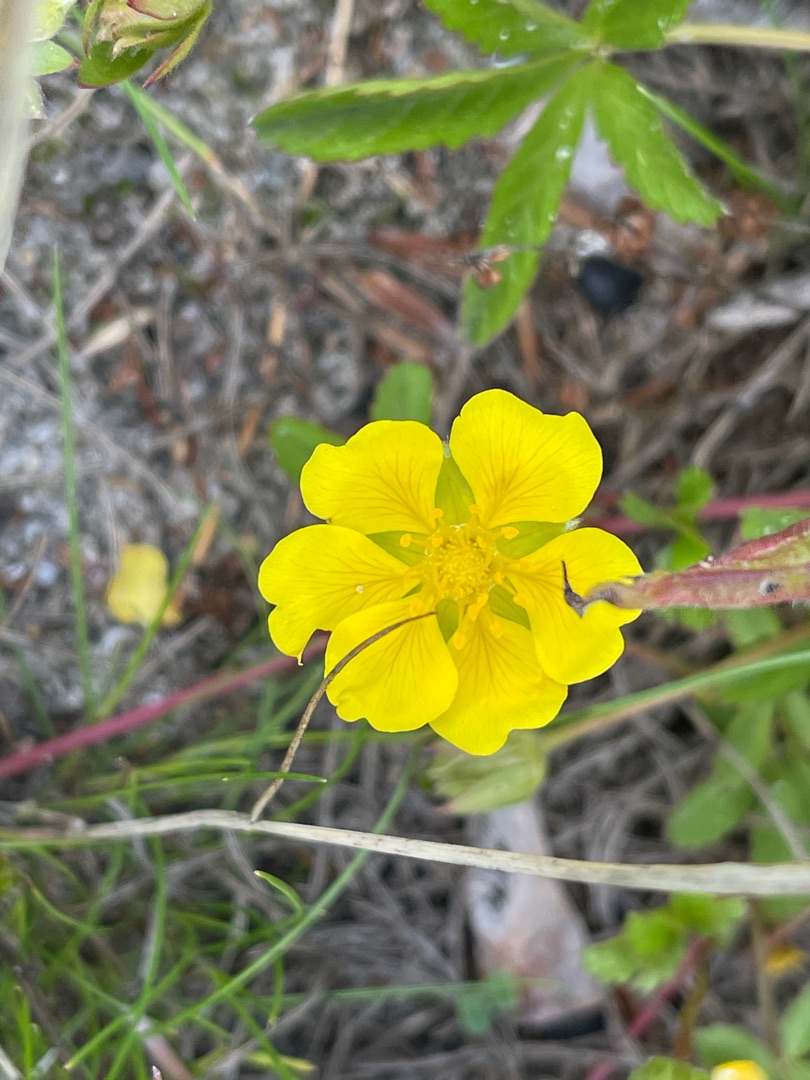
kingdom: Plantae
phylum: Tracheophyta
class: Magnoliopsida
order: Rosales
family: Rosaceae
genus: Potentilla
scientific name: Potentilla reptans
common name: Krybende potentil
